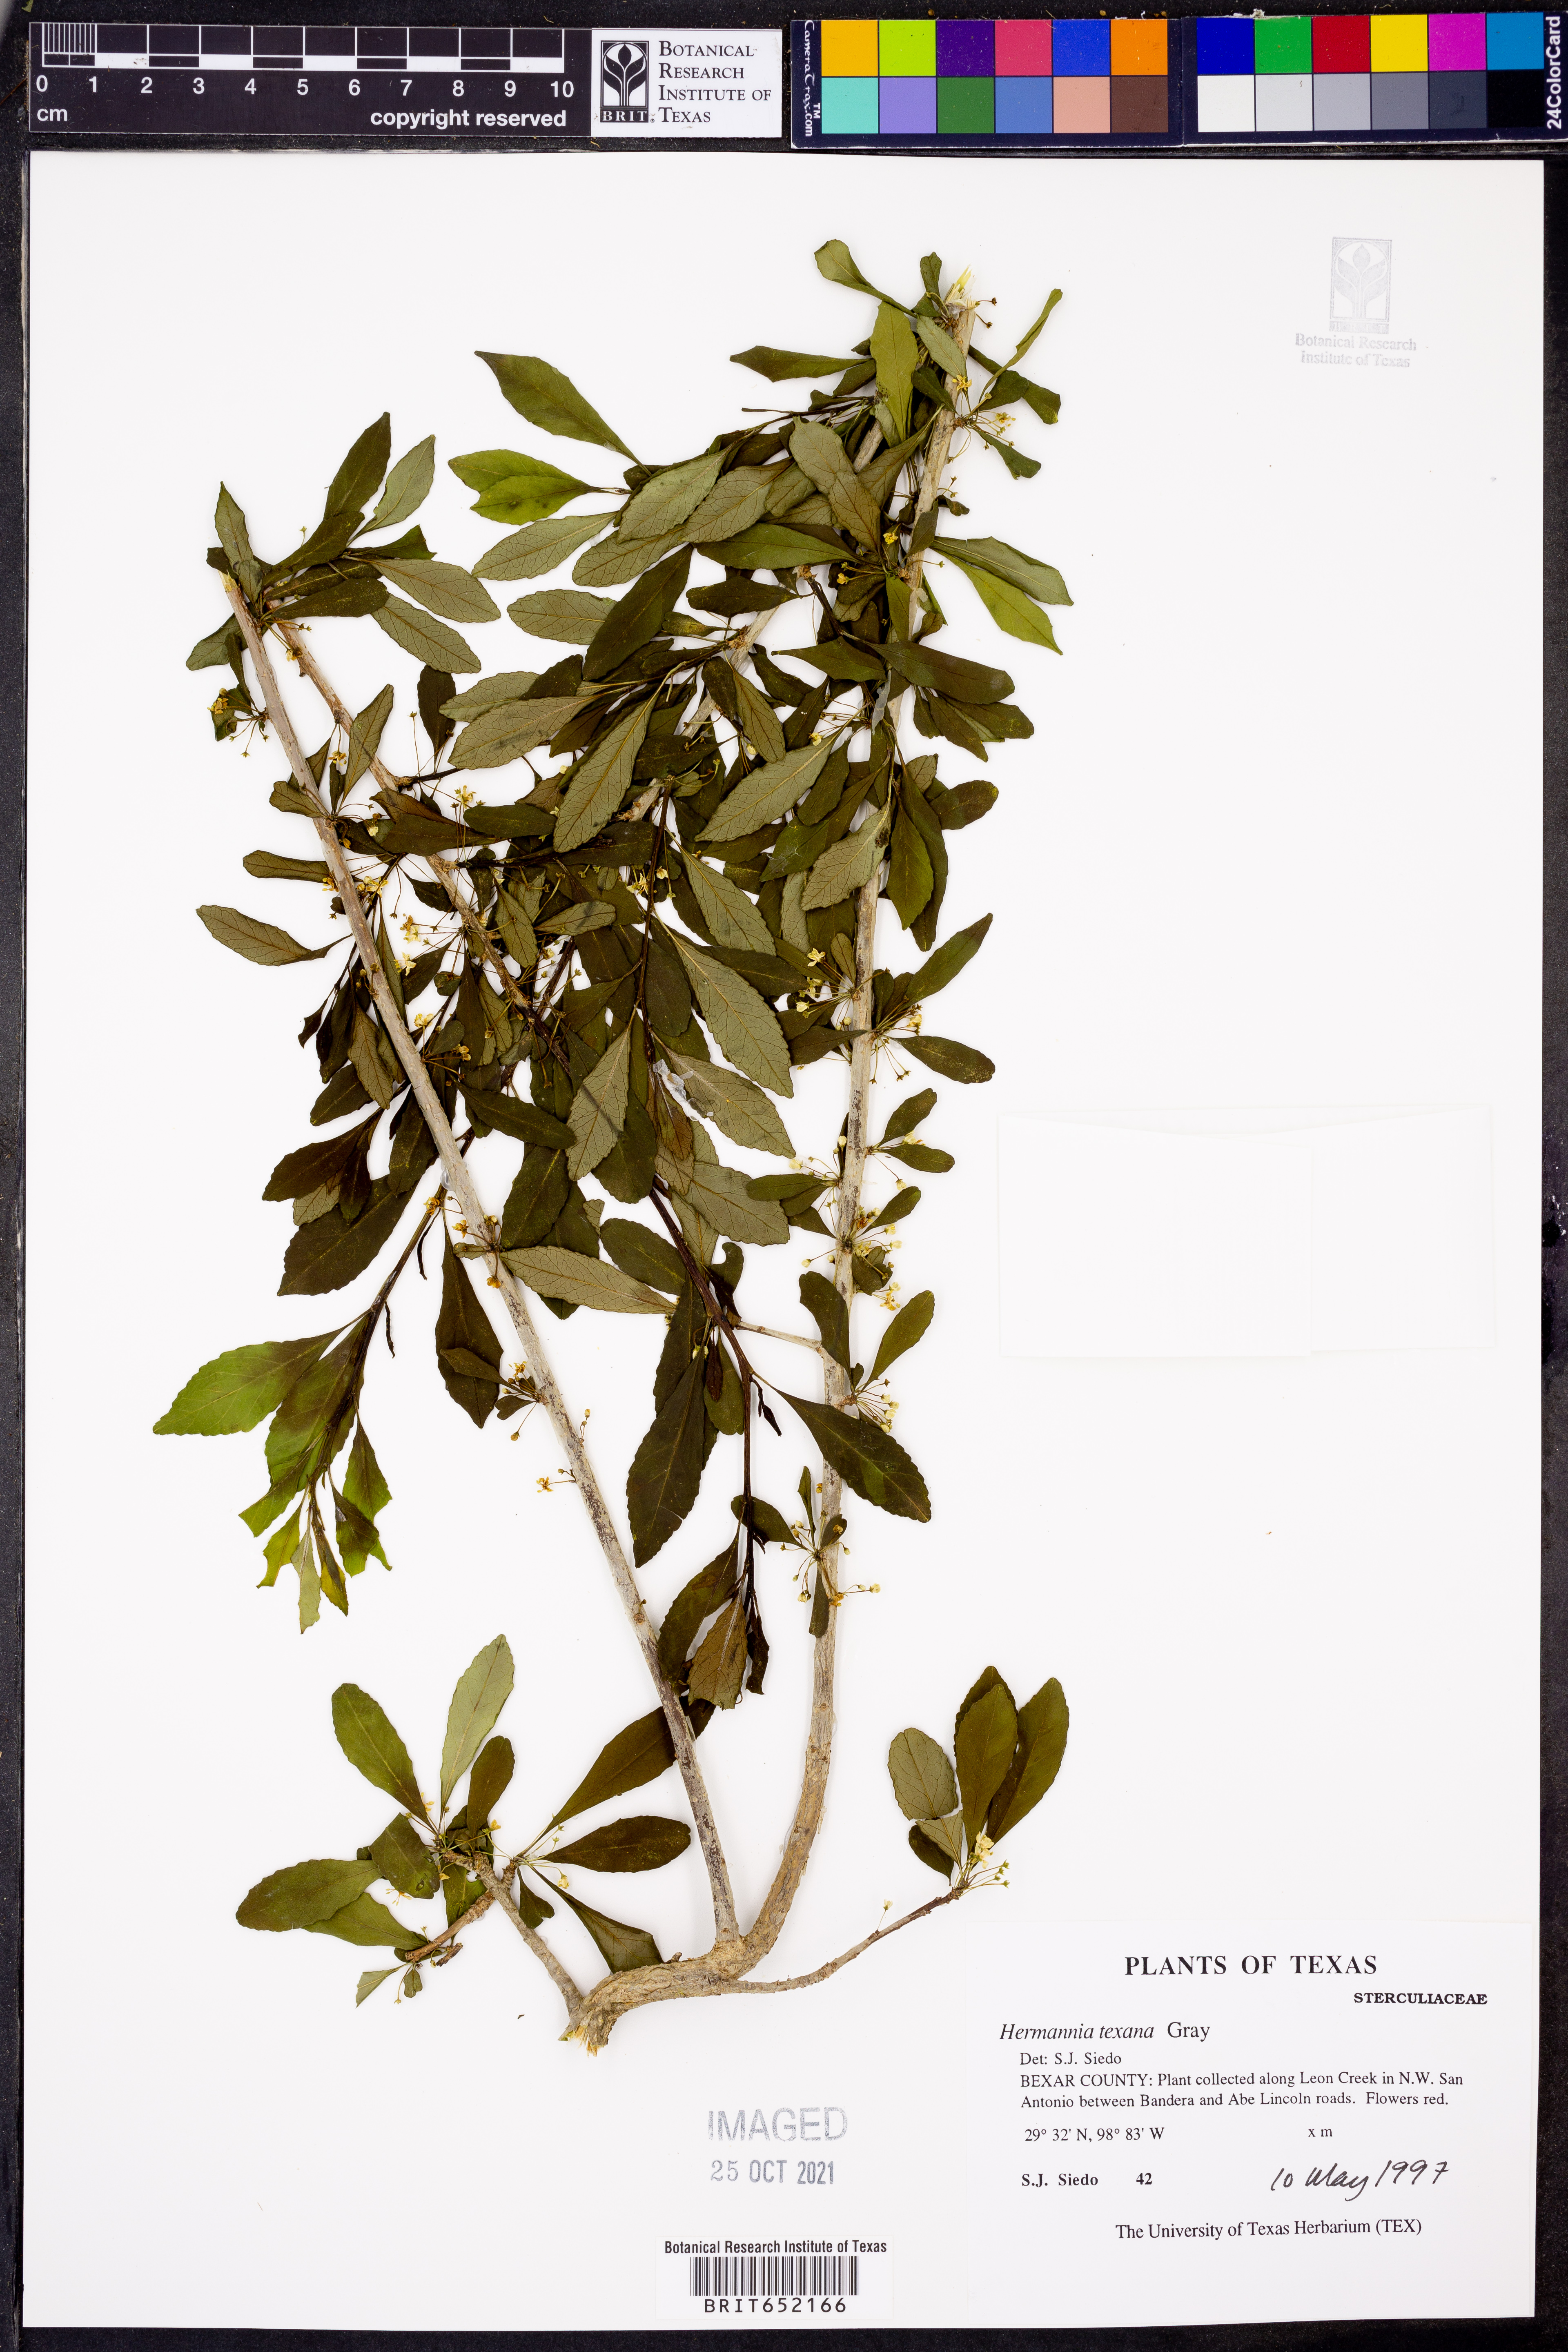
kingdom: Plantae
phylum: Tracheophyta
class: Magnoliopsida
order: Malvales
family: Malvaceae
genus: Hermannia
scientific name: Hermannia texana
